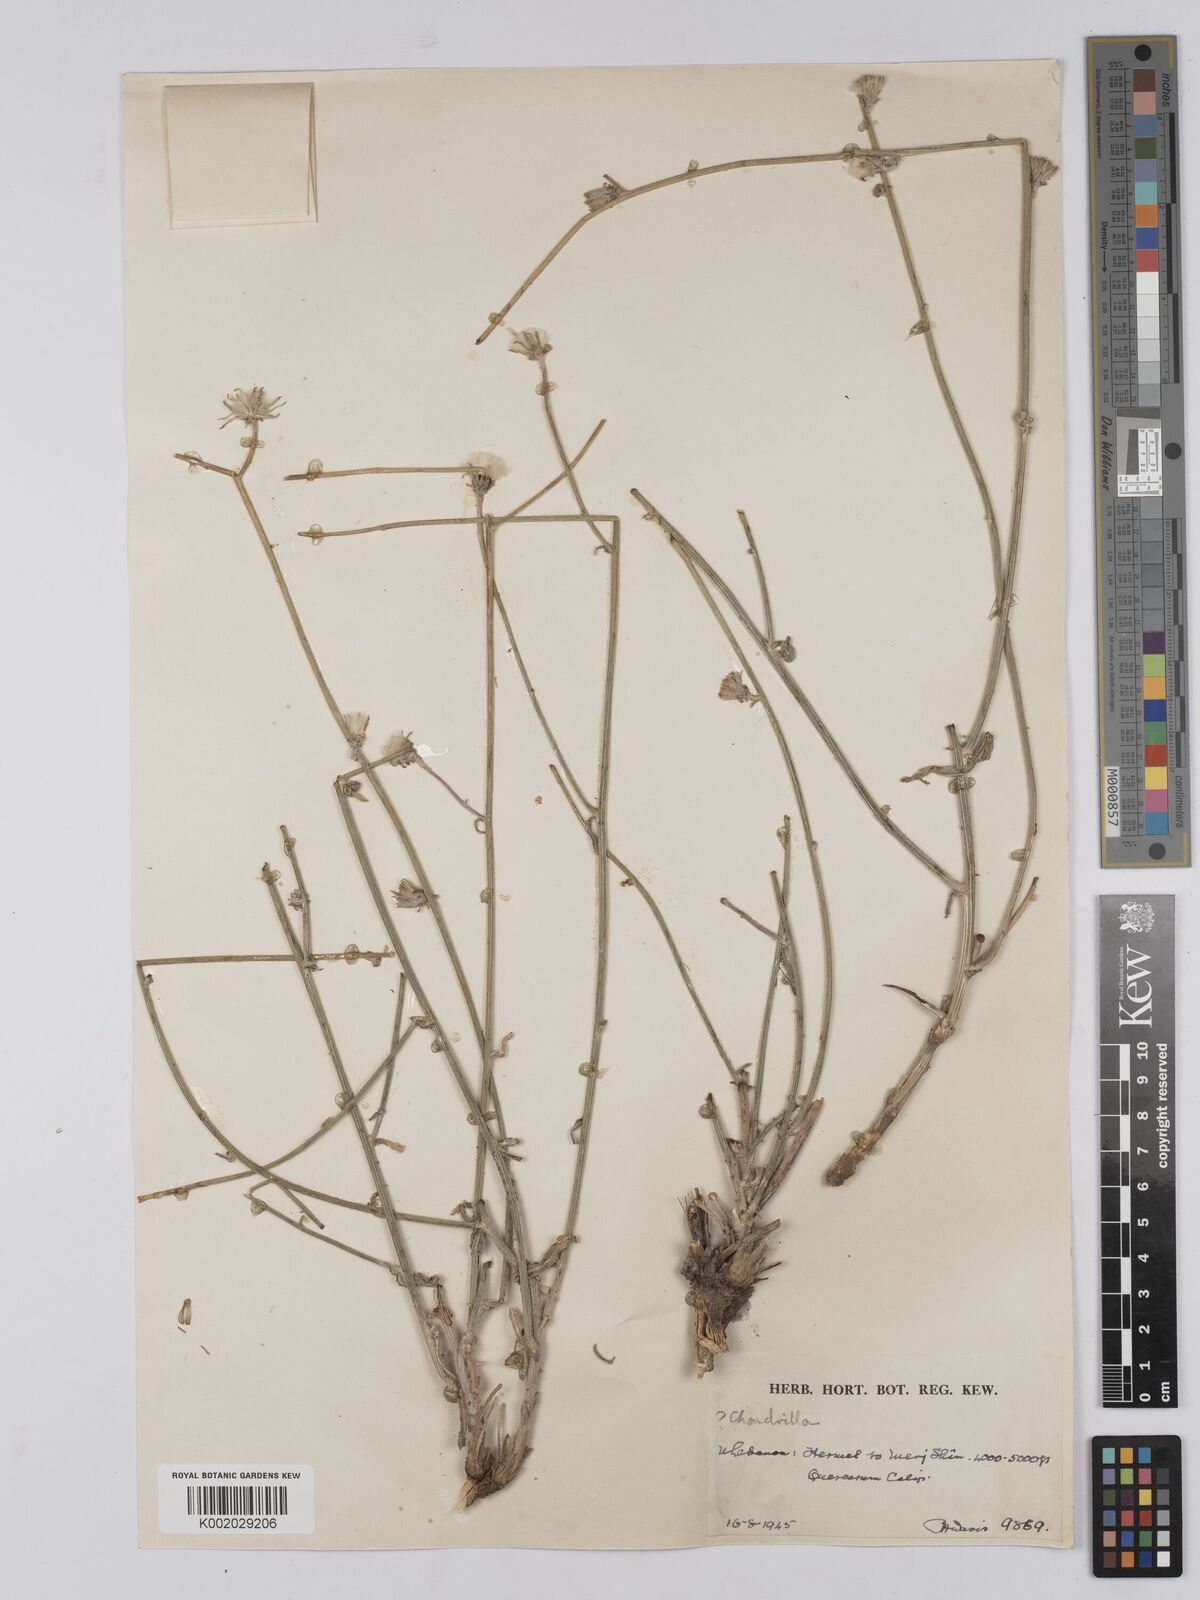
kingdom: Plantae
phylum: Tracheophyta
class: Magnoliopsida
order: Asterales
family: Asteraceae
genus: Chondrilla
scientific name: Chondrilla juncea
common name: Skeleton weed
